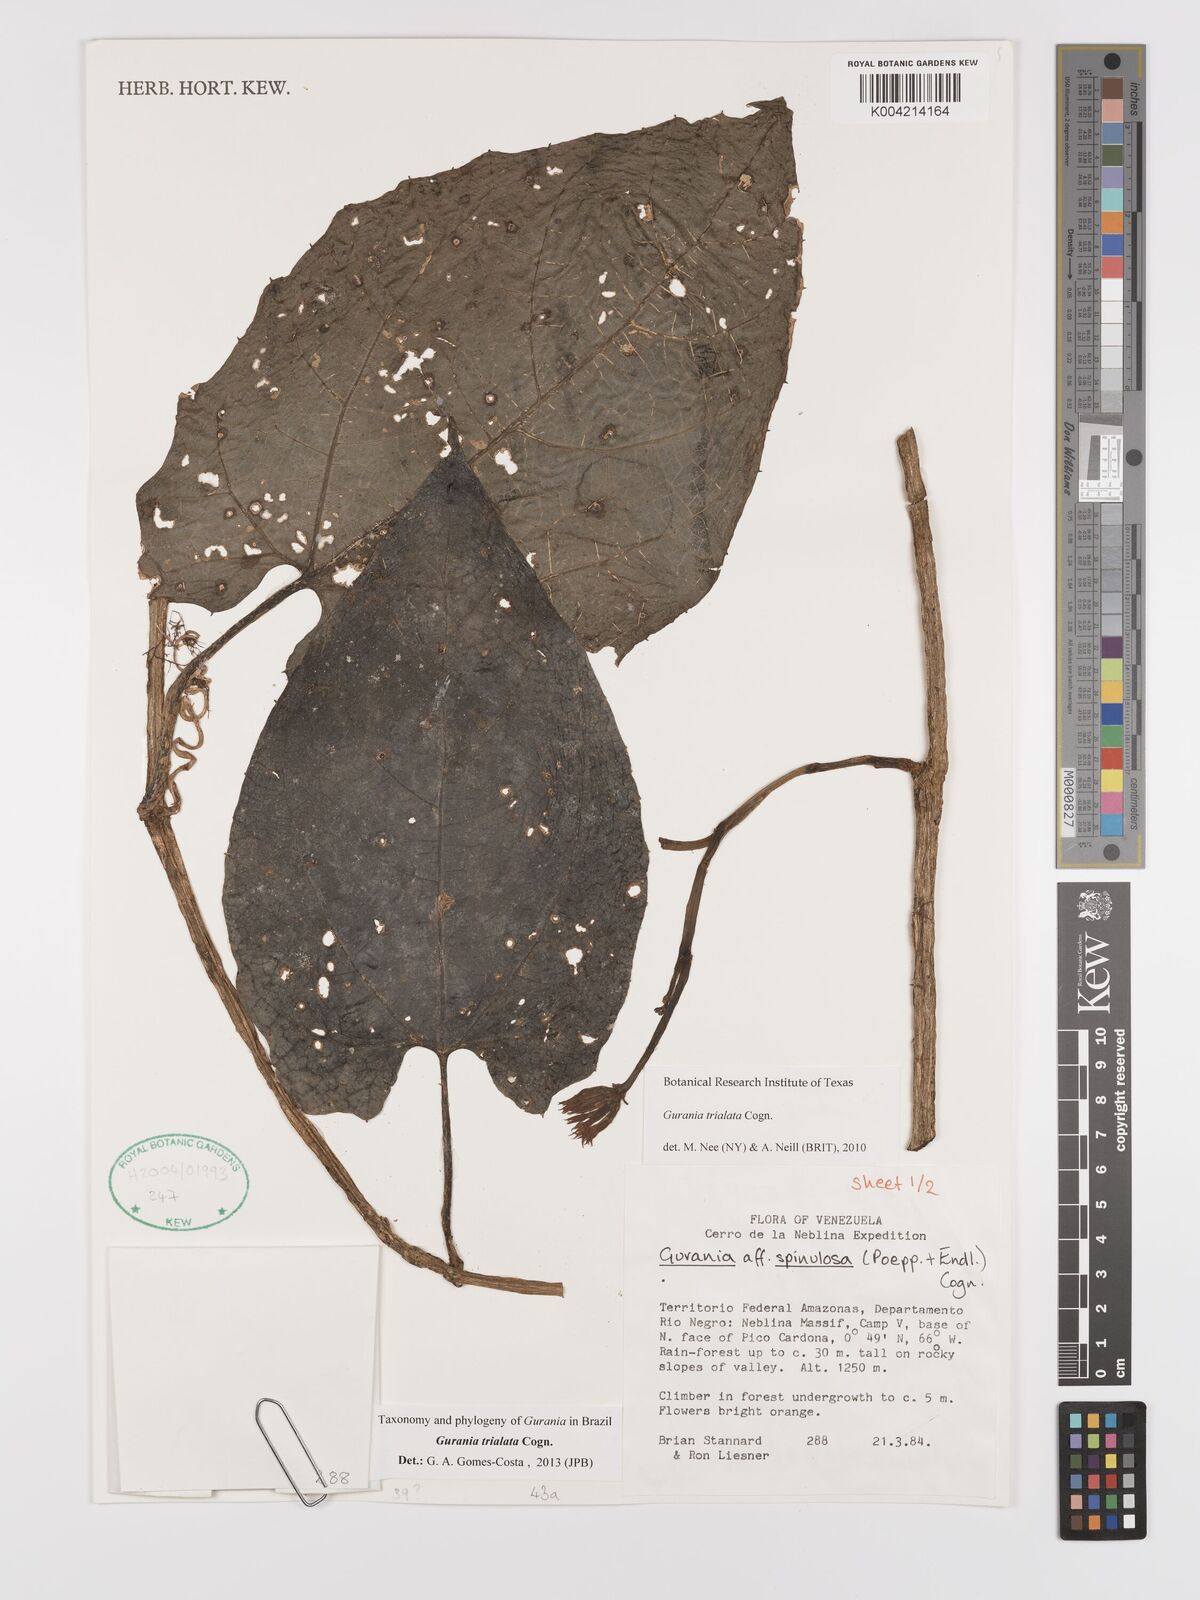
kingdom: Plantae
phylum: Tracheophyta
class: Magnoliopsida
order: Cucurbitales
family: Cucurbitaceae
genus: Gurania
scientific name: Gurania bignoniacea
